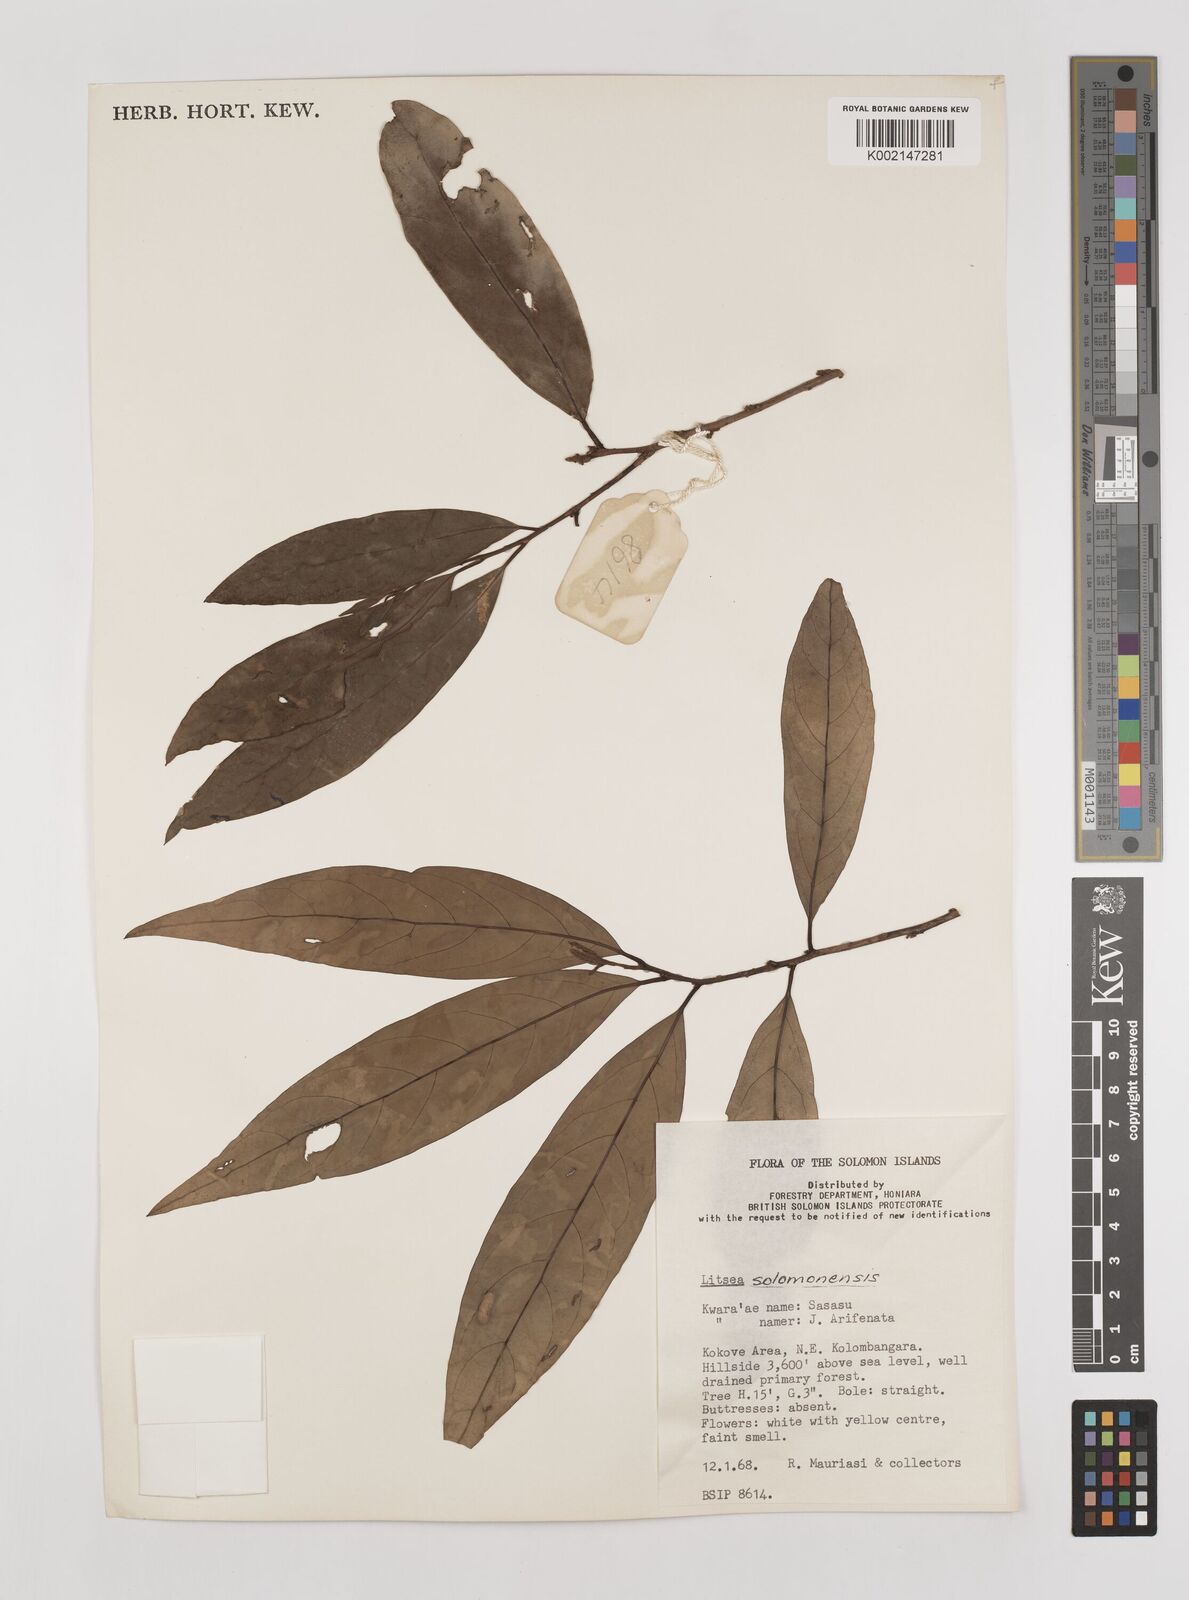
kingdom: Plantae
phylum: Tracheophyta
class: Magnoliopsida
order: Laurales
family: Lauraceae
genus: Litsea
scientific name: Litsea timoriana
